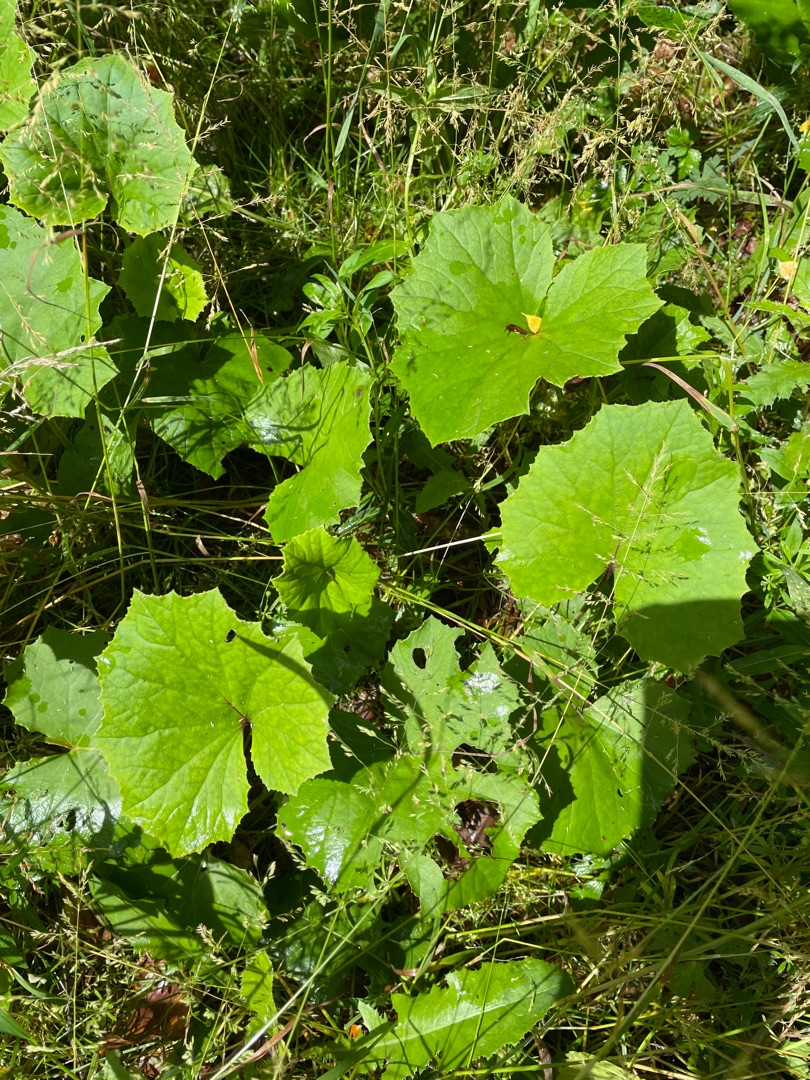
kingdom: Plantae
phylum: Tracheophyta
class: Magnoliopsida
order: Asterales
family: Asteraceae
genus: Tussilago
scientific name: Tussilago farfara
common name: Følfod
